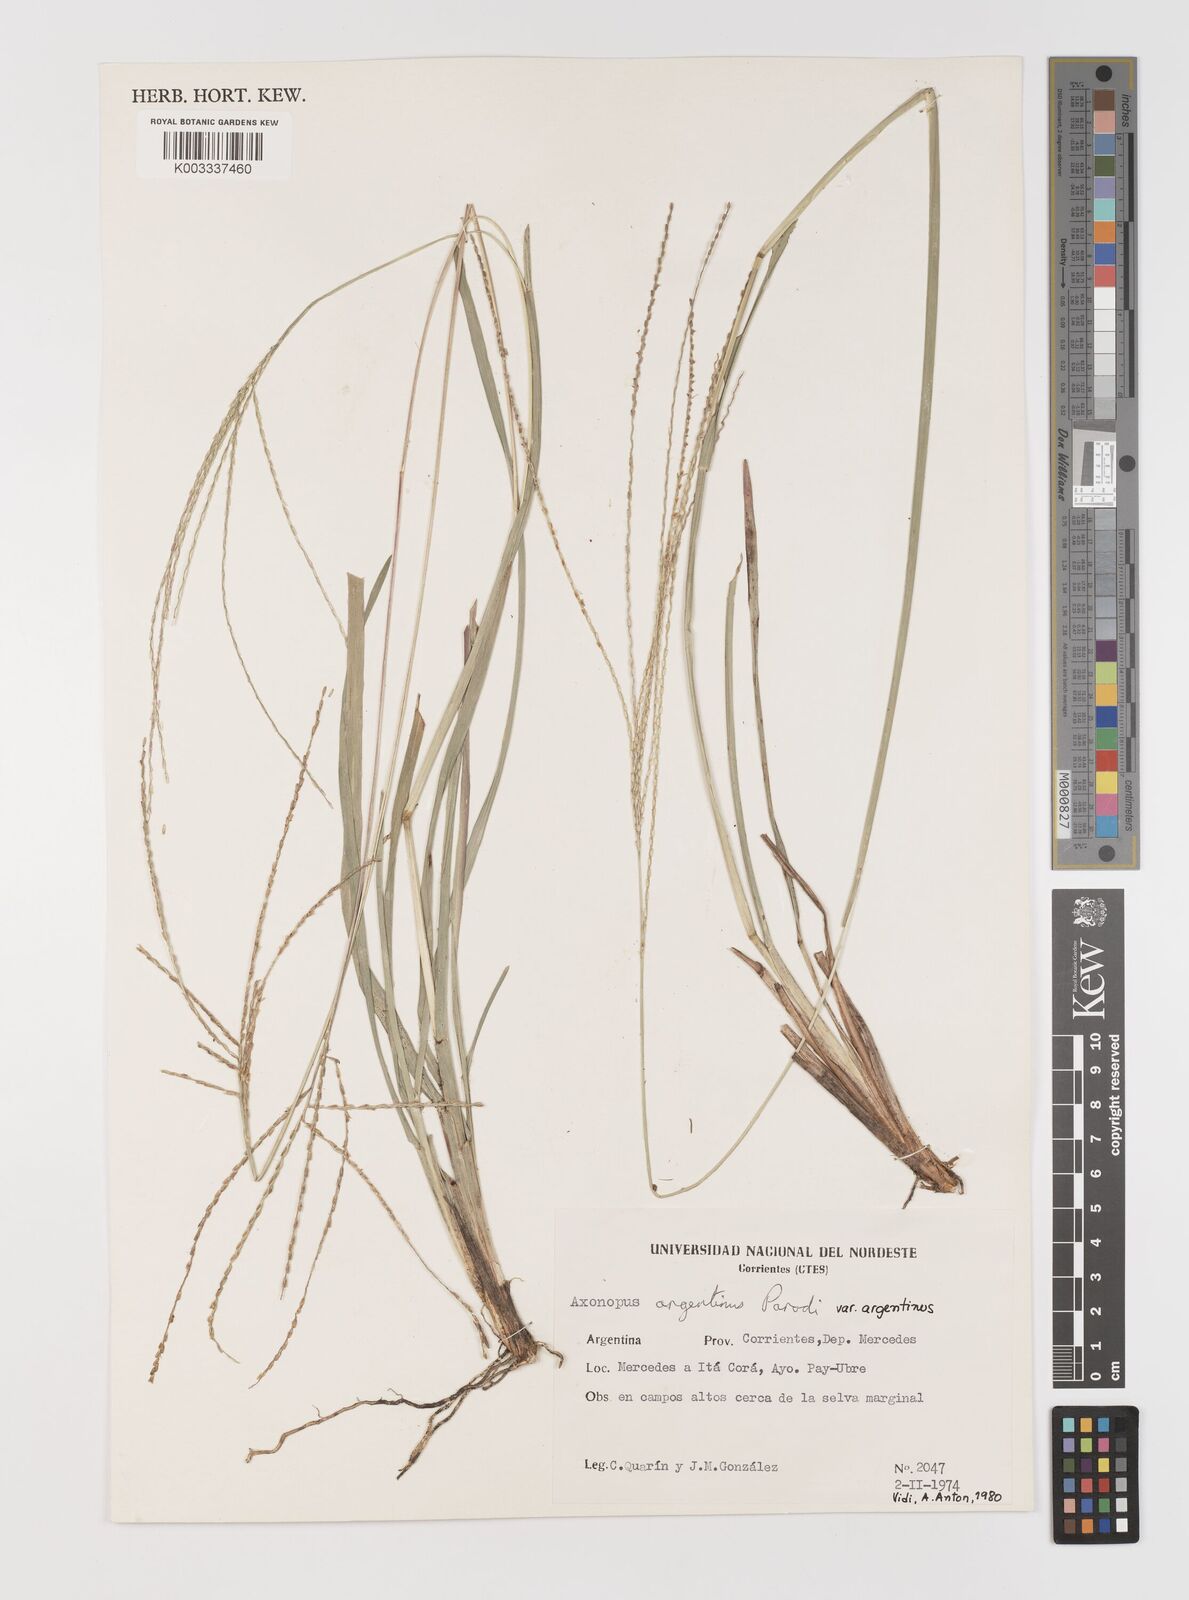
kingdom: Plantae
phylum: Tracheophyta
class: Liliopsida
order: Poales
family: Poaceae
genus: Axonopus
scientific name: Axonopus argentinus
